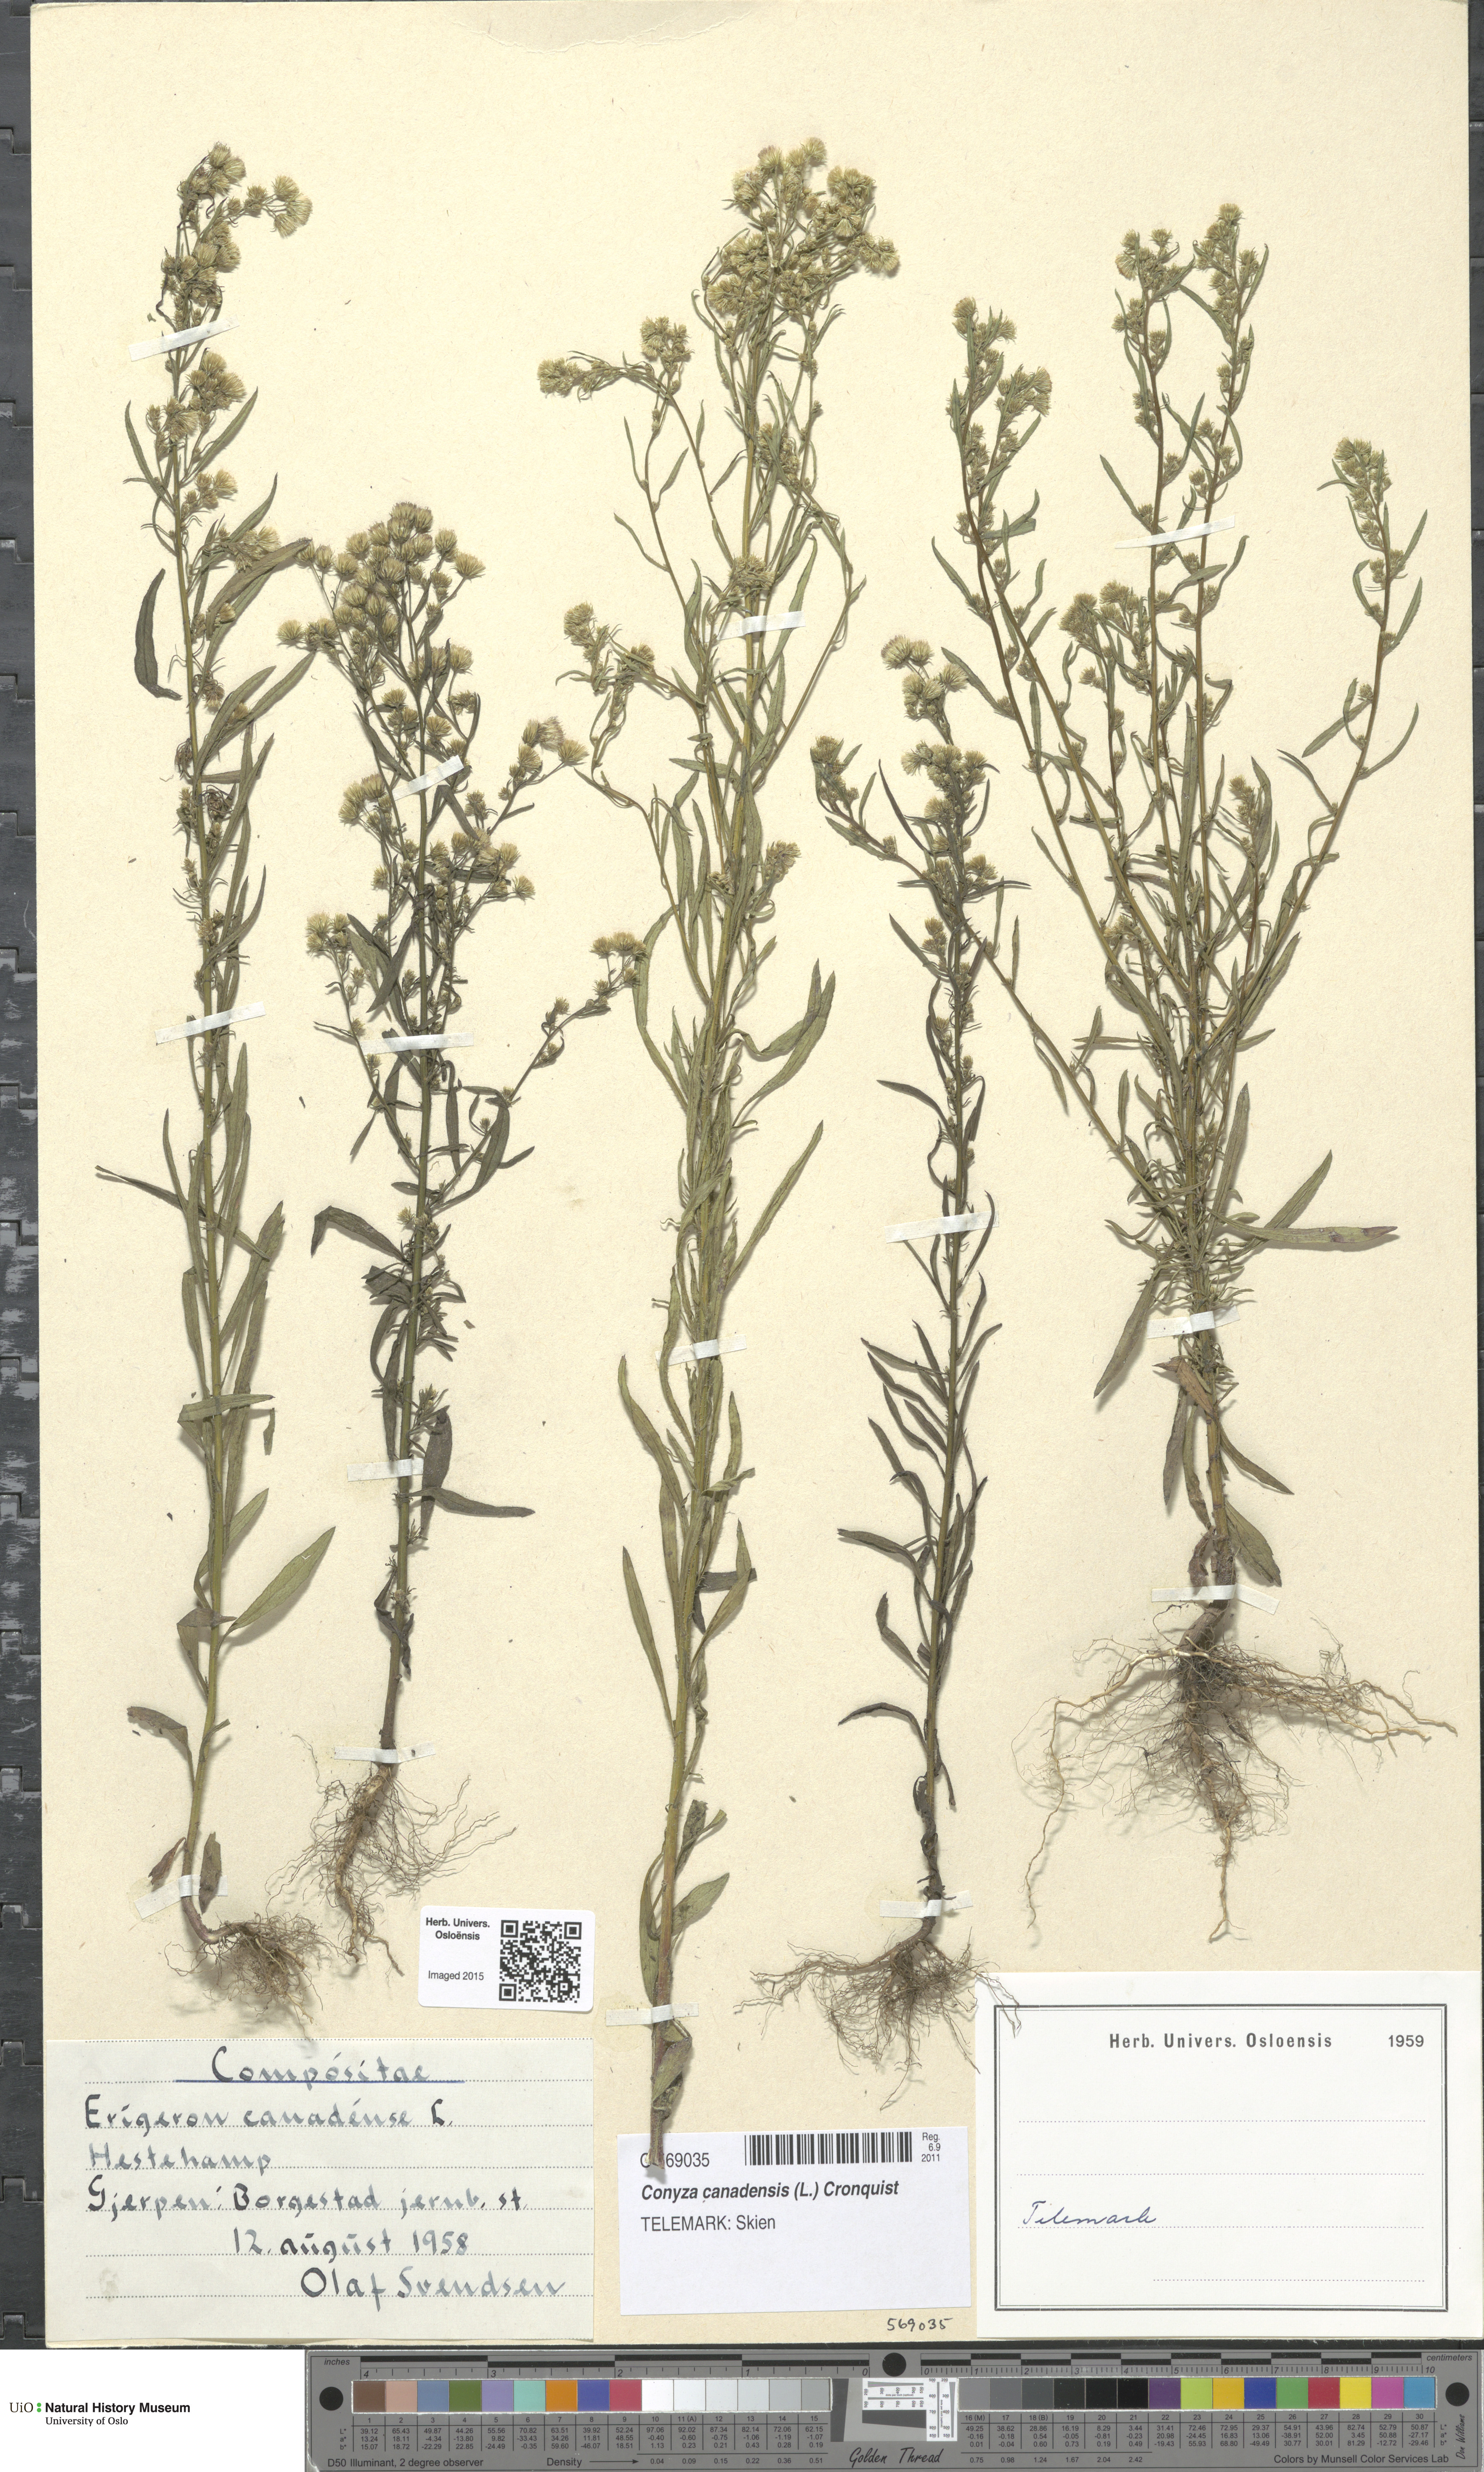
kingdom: Plantae
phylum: Tracheophyta
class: Magnoliopsida
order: Asterales
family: Asteraceae
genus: Erigeron
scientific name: Erigeron canadensis
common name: Canadian fleabane
